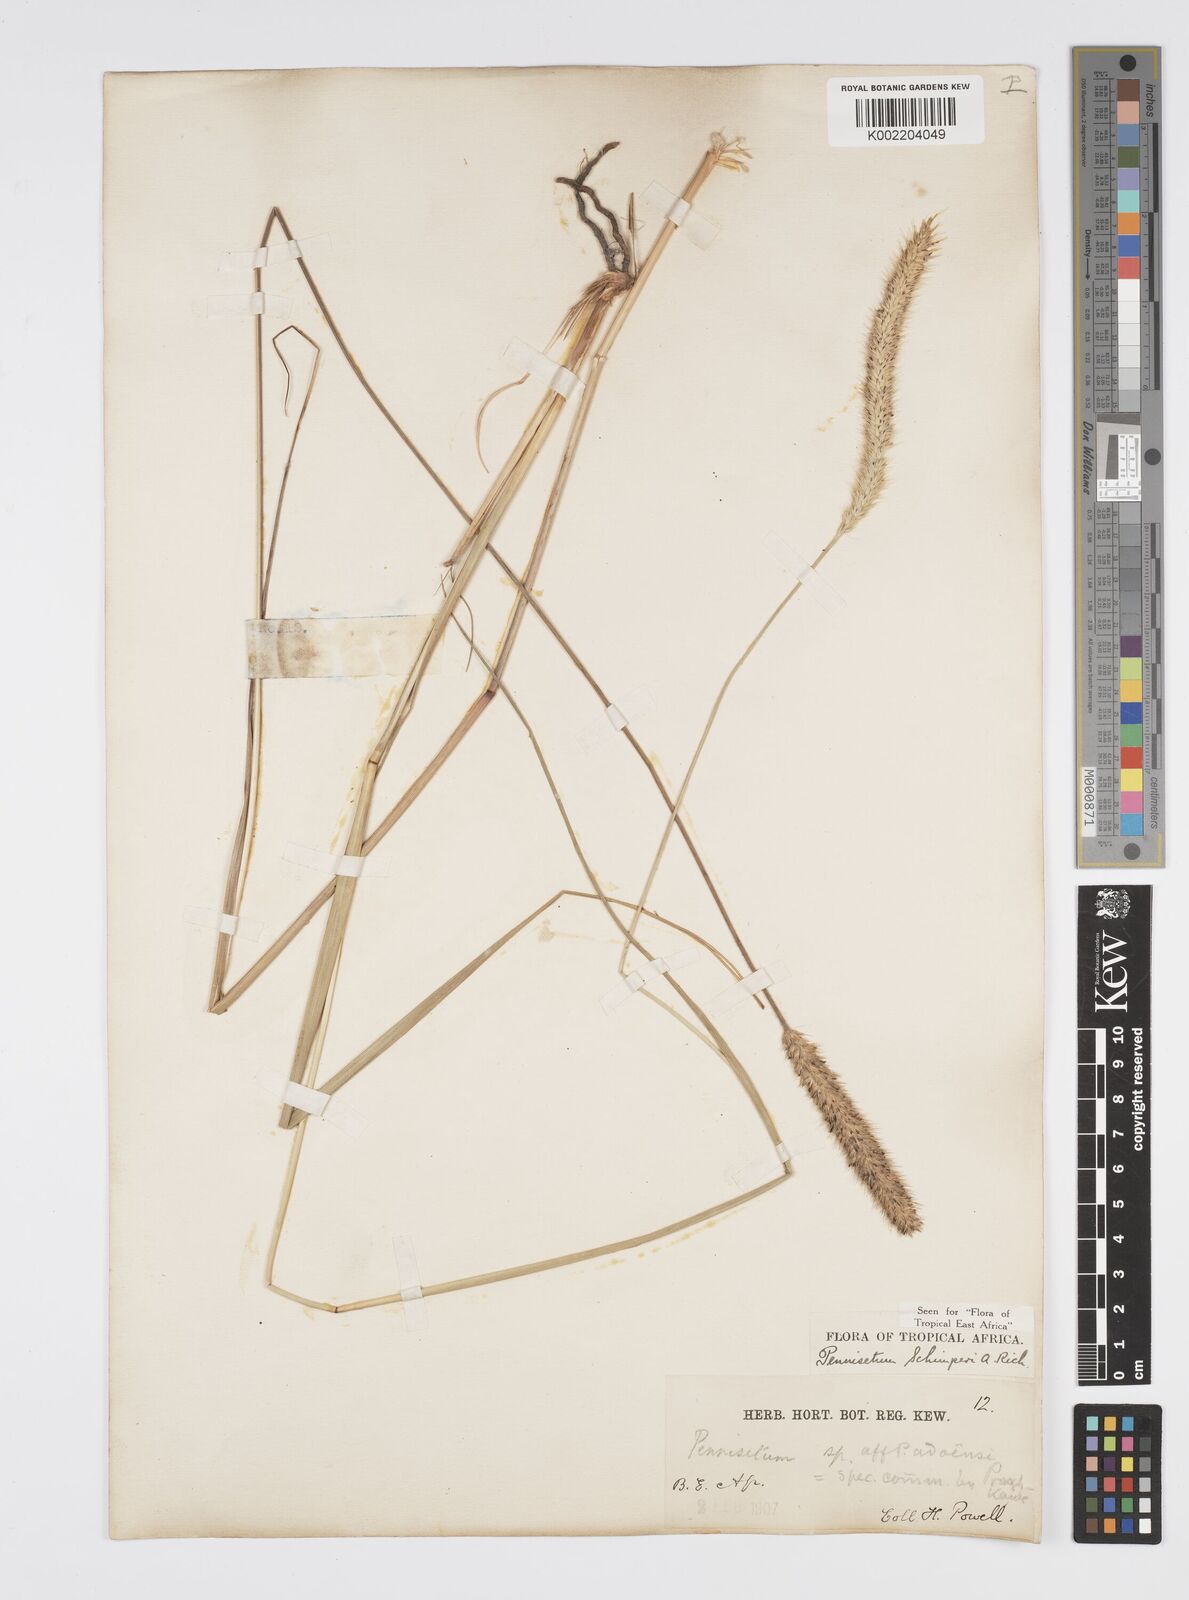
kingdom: Plantae
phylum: Tracheophyta
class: Liliopsida
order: Poales
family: Poaceae
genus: Cenchrus
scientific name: Cenchrus sphacelatus
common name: Bulgras
